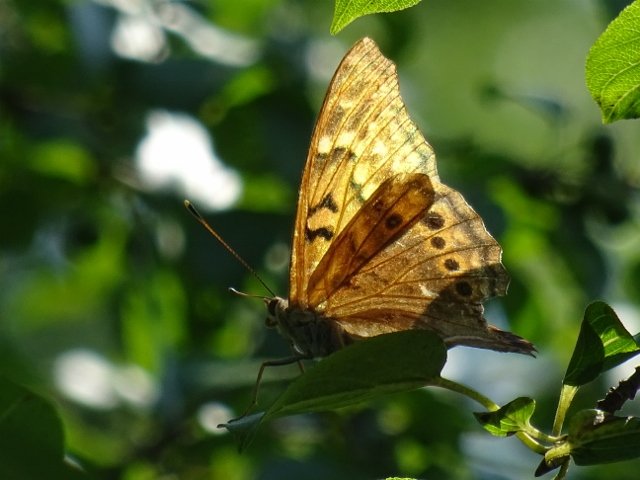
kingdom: Animalia
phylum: Arthropoda
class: Insecta
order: Lepidoptera
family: Nymphalidae
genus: Asterocampa
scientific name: Asterocampa clyton
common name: Tawny Emperor
